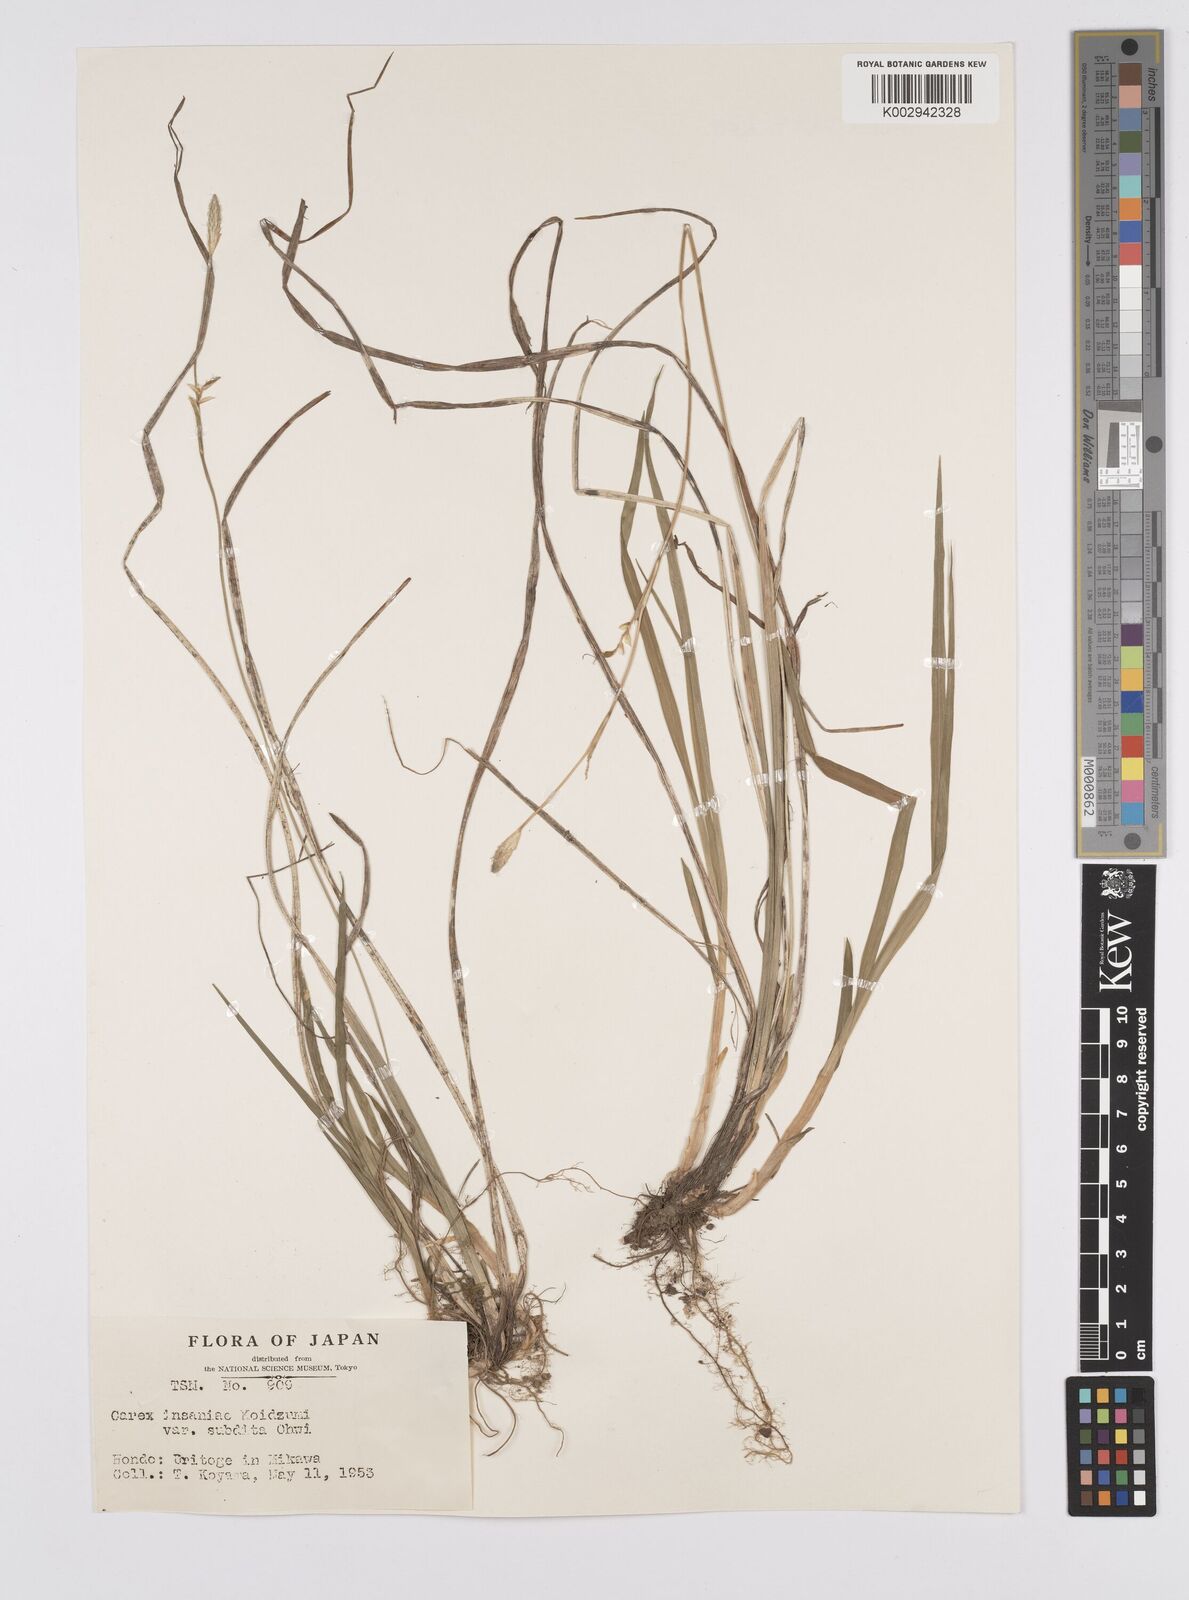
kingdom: Plantae
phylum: Tracheophyta
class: Liliopsida
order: Poales
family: Cyperaceae
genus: Carex
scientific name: Carex insaniae
